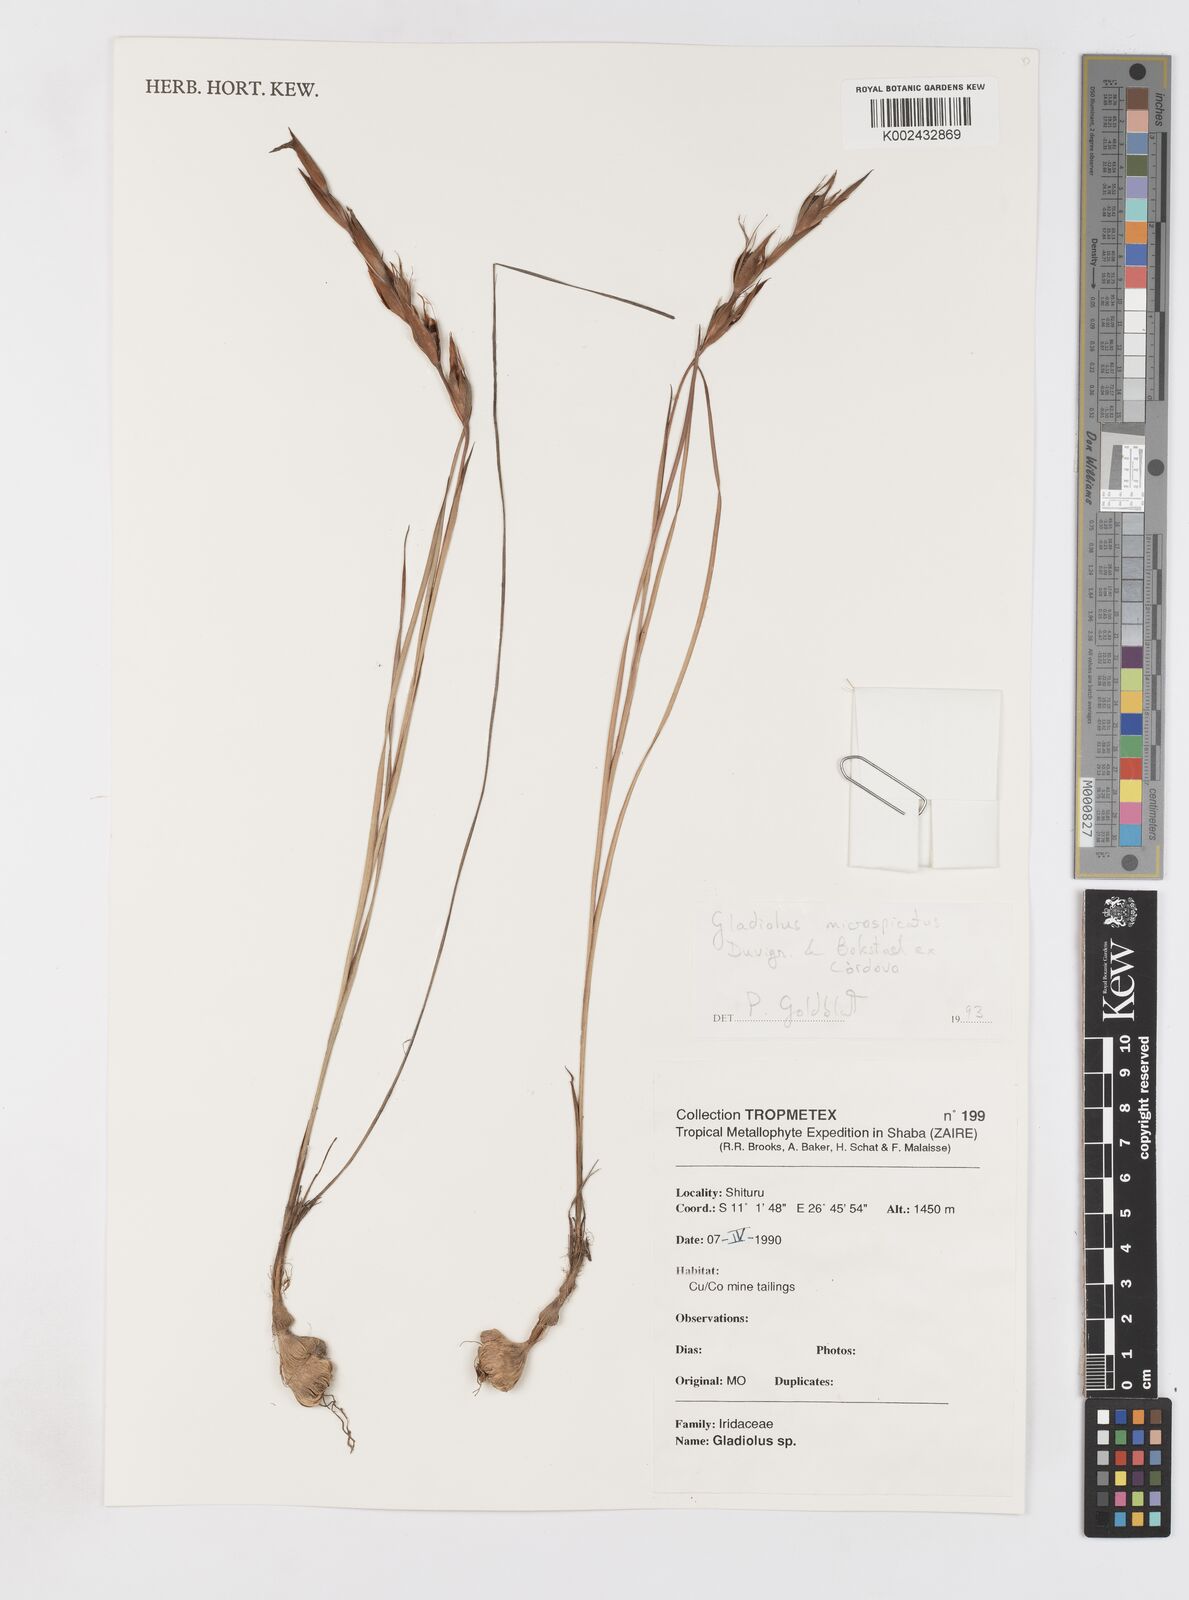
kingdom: Plantae
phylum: Tracheophyta
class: Liliopsida
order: Asparagales
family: Iridaceae
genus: Gladiolus
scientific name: Gladiolus microspicatus
